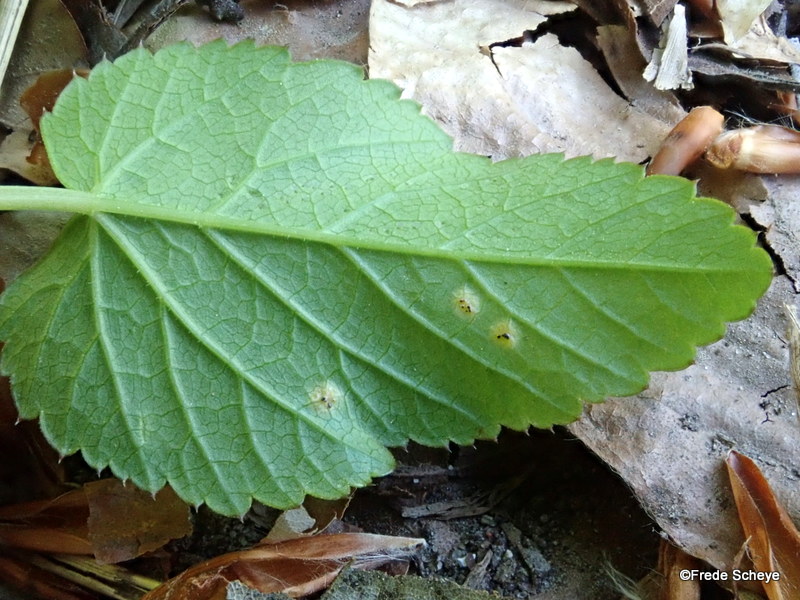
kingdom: Fungi
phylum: Basidiomycota
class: Pucciniomycetes
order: Pucciniales
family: Pucciniaceae
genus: Puccinia
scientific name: Puccinia
